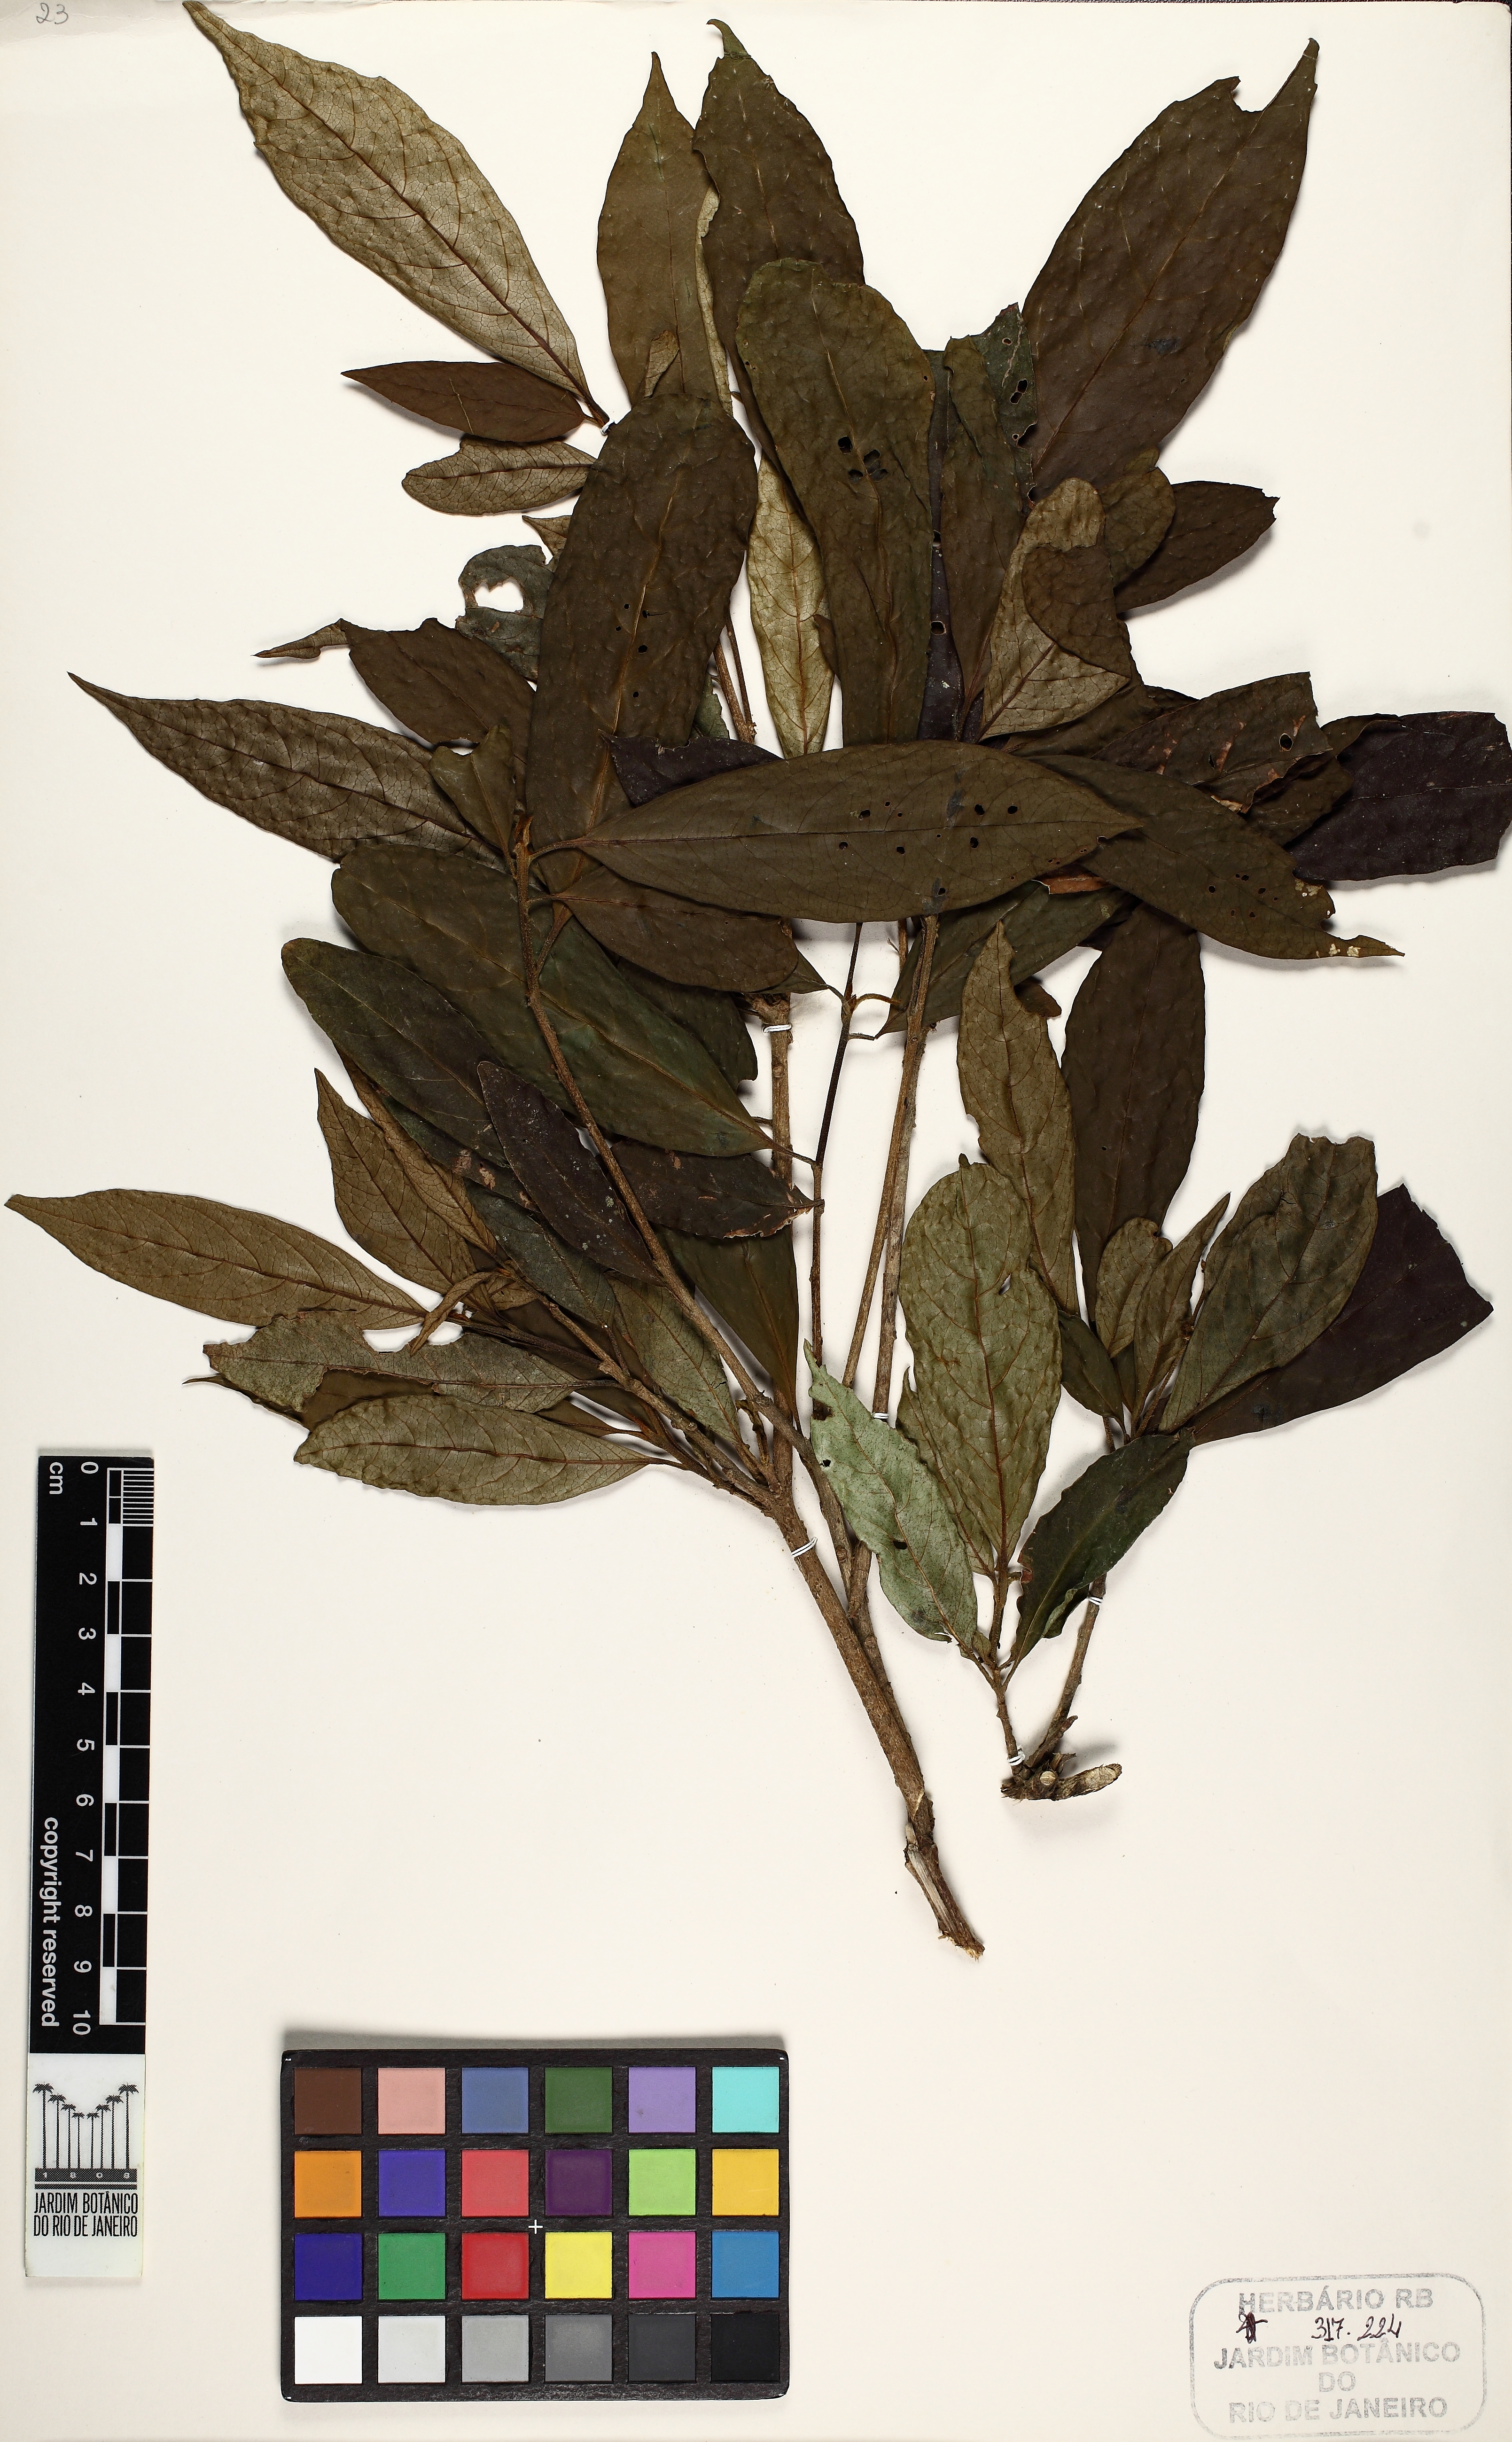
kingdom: Plantae
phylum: Tracheophyta
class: Magnoliopsida
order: Boraginales
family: Cordiaceae
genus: Cordia
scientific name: Cordia aberrans
